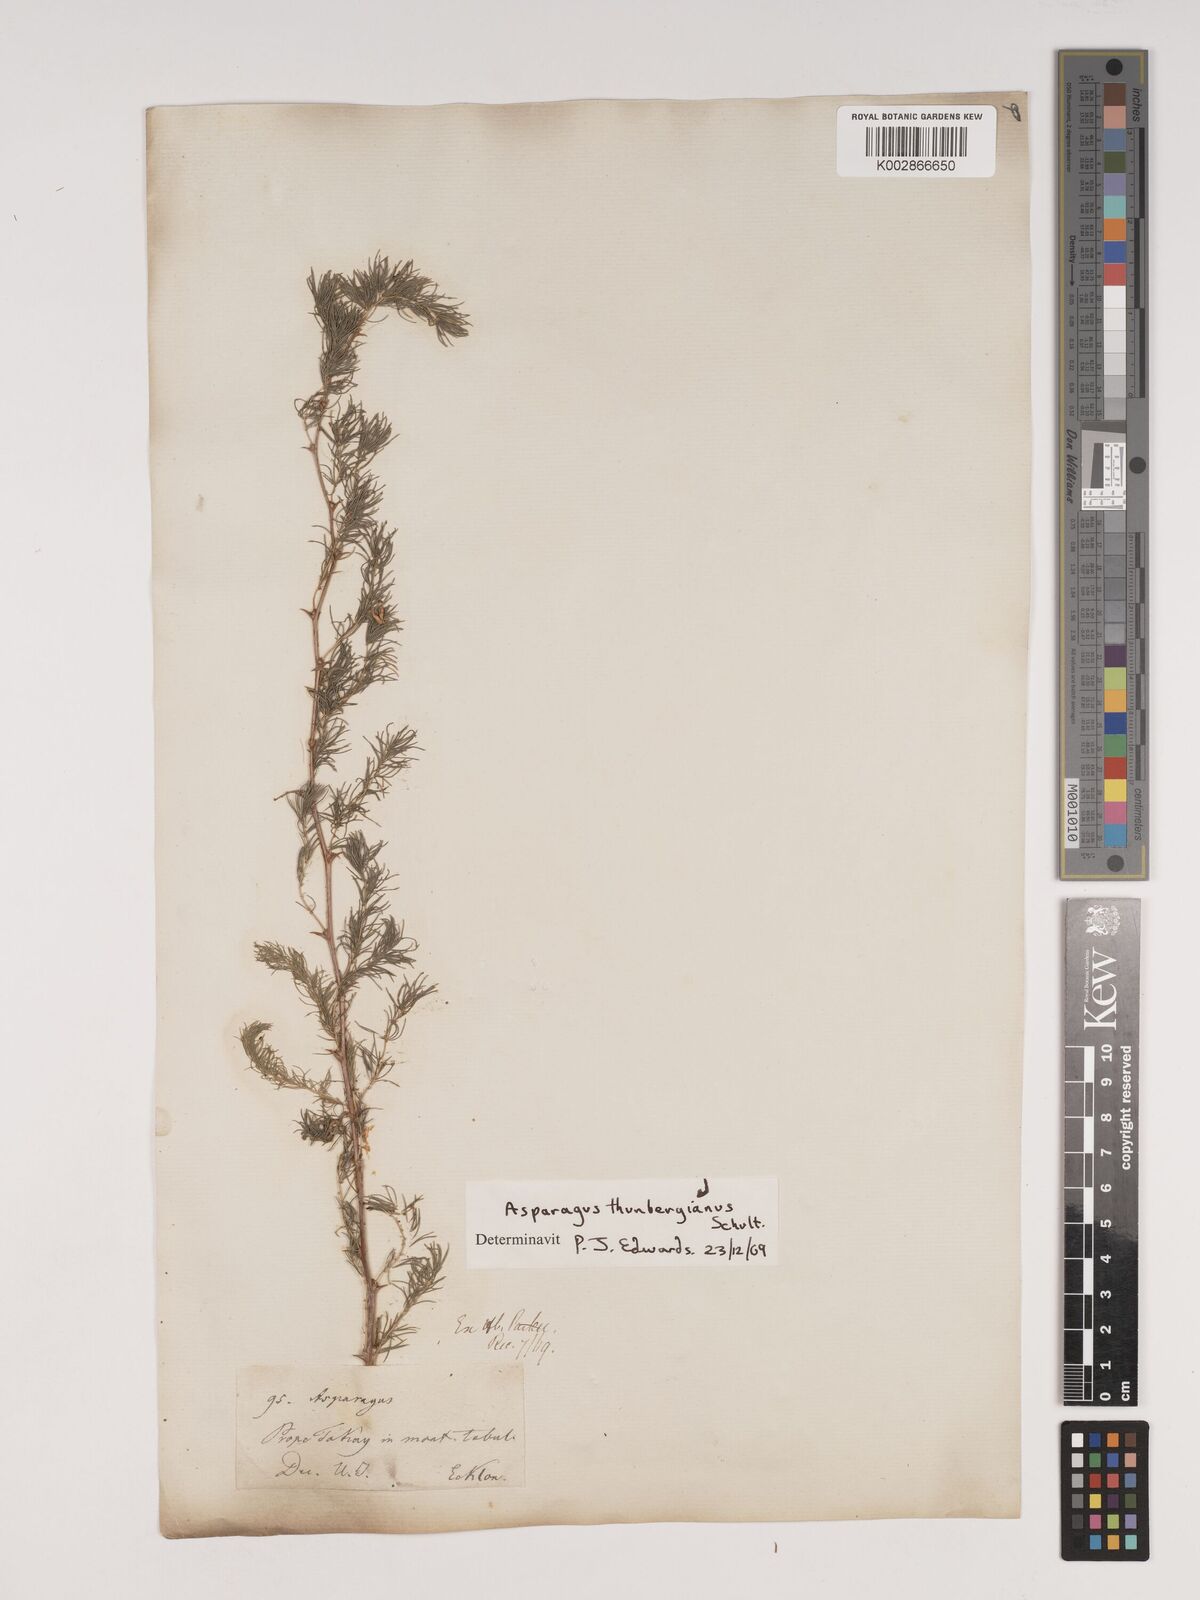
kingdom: Plantae
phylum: Tracheophyta
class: Liliopsida
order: Asparagales
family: Asparagaceae
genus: Asparagus
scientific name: Asparagus rubicundus
